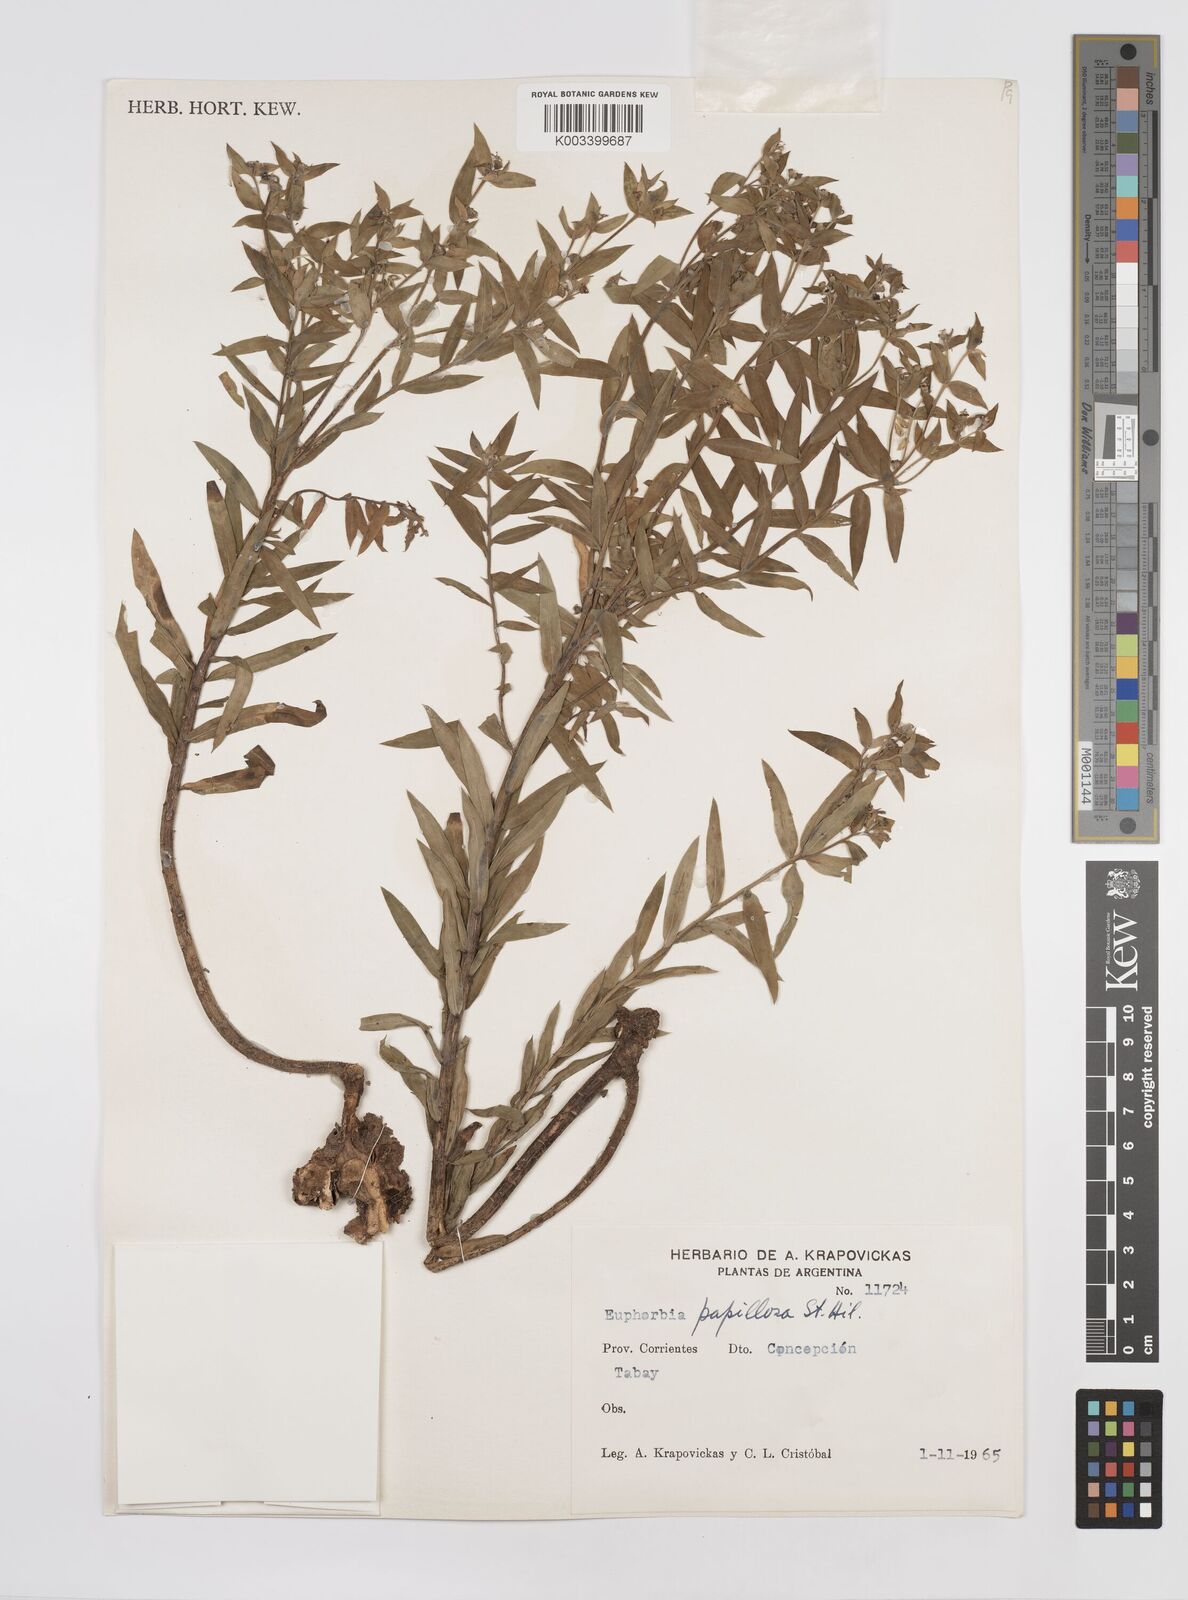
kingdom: Plantae
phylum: Tracheophyta
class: Magnoliopsida
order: Malpighiales
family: Euphorbiaceae
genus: Euphorbia
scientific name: Euphorbia
